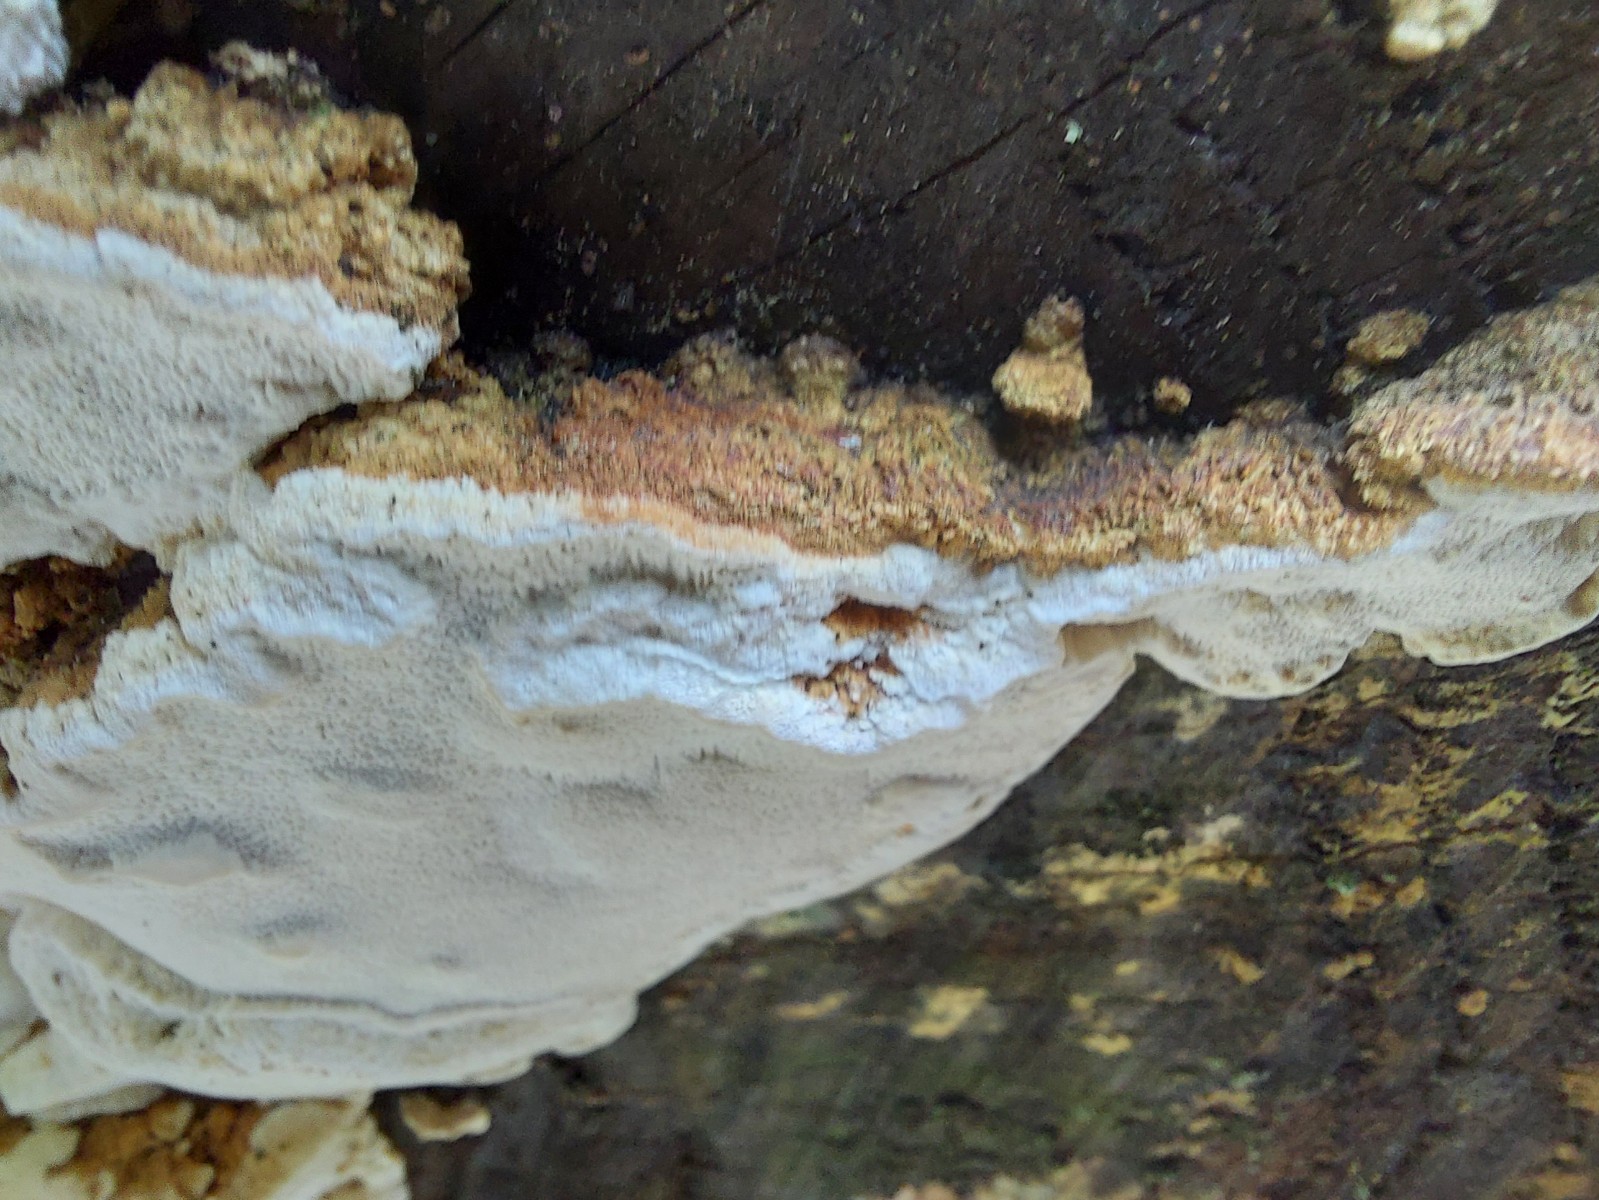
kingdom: Fungi
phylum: Basidiomycota
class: Agaricomycetes
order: Polyporales
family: Fomitopsidaceae
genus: Neoantrodia
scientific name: Neoantrodia serialis
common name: række-sejporesvamp
